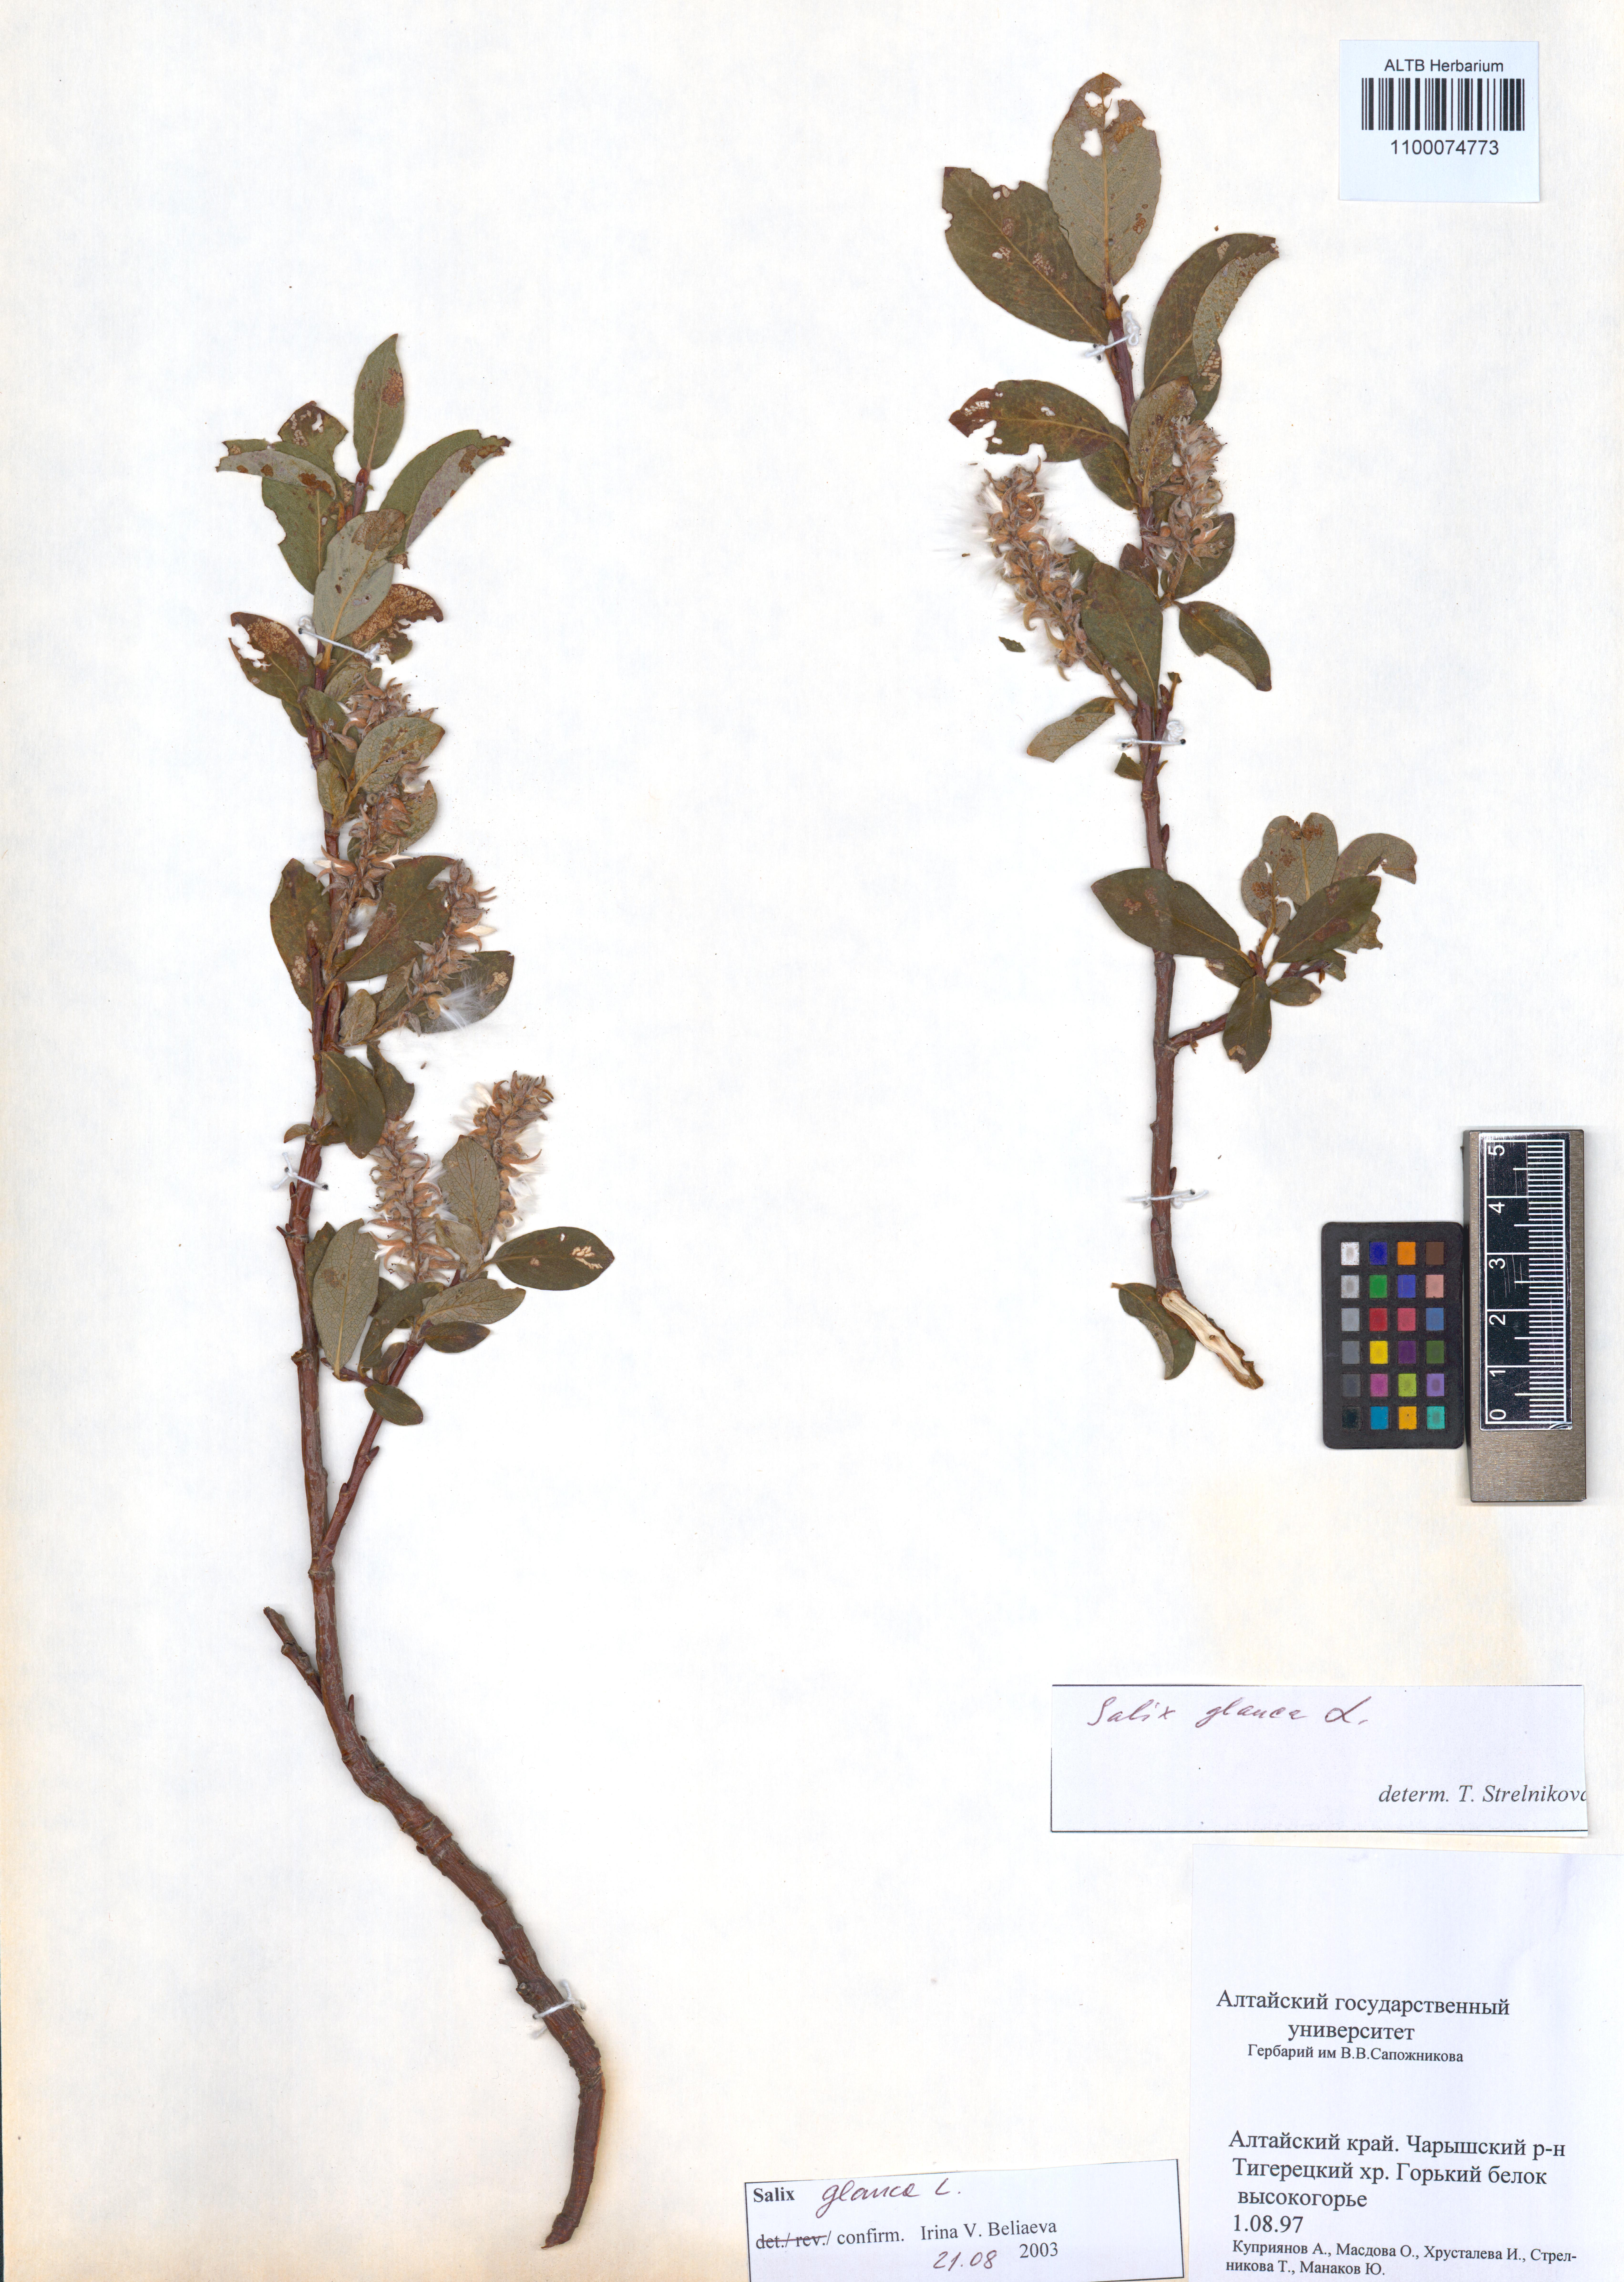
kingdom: Plantae
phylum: Tracheophyta
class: Magnoliopsida
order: Malpighiales
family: Salicaceae
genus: Salix
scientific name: Salix glauca
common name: Glaucous willow
